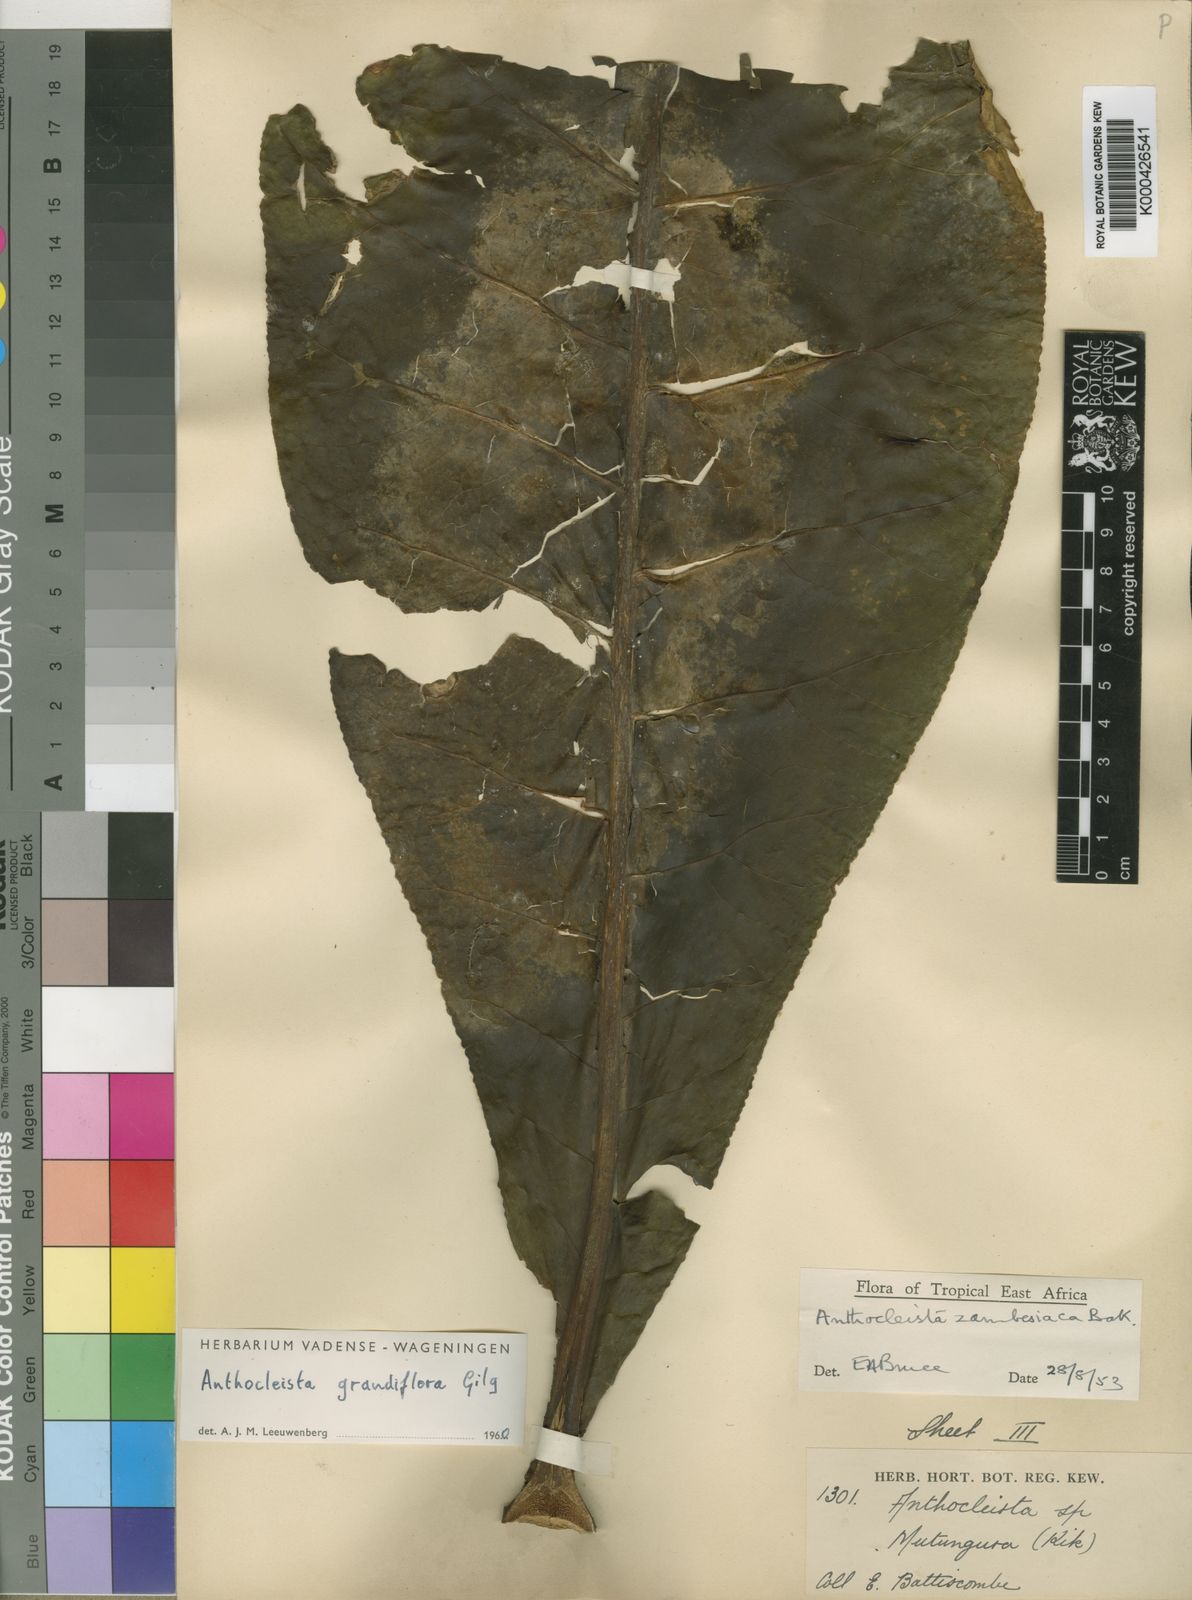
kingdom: Plantae
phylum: Tracheophyta
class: Magnoliopsida
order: Gentianales
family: Gentianaceae
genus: Anthocleista
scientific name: Anthocleista grandiflora
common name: Forest big-leaf
